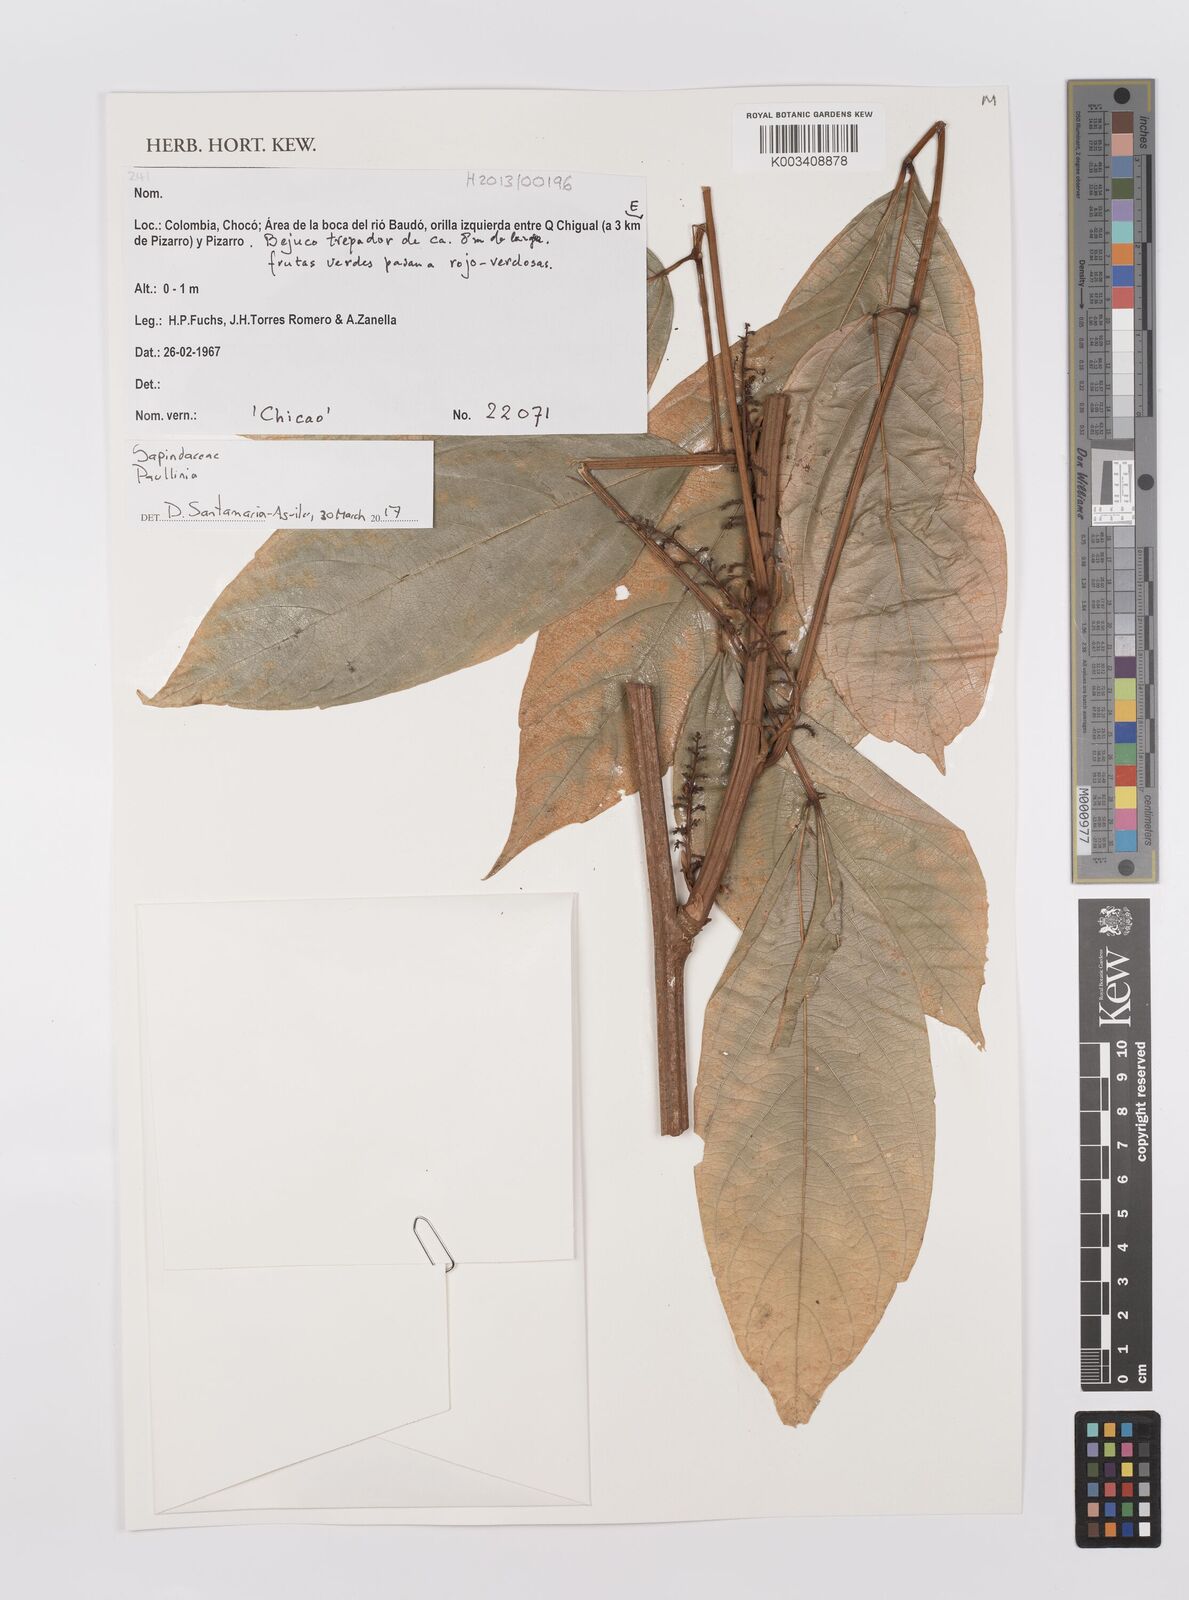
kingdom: Plantae
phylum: Tracheophyta
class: Magnoliopsida
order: Sapindales
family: Sapindaceae
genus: Paullinia
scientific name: Paullinia
